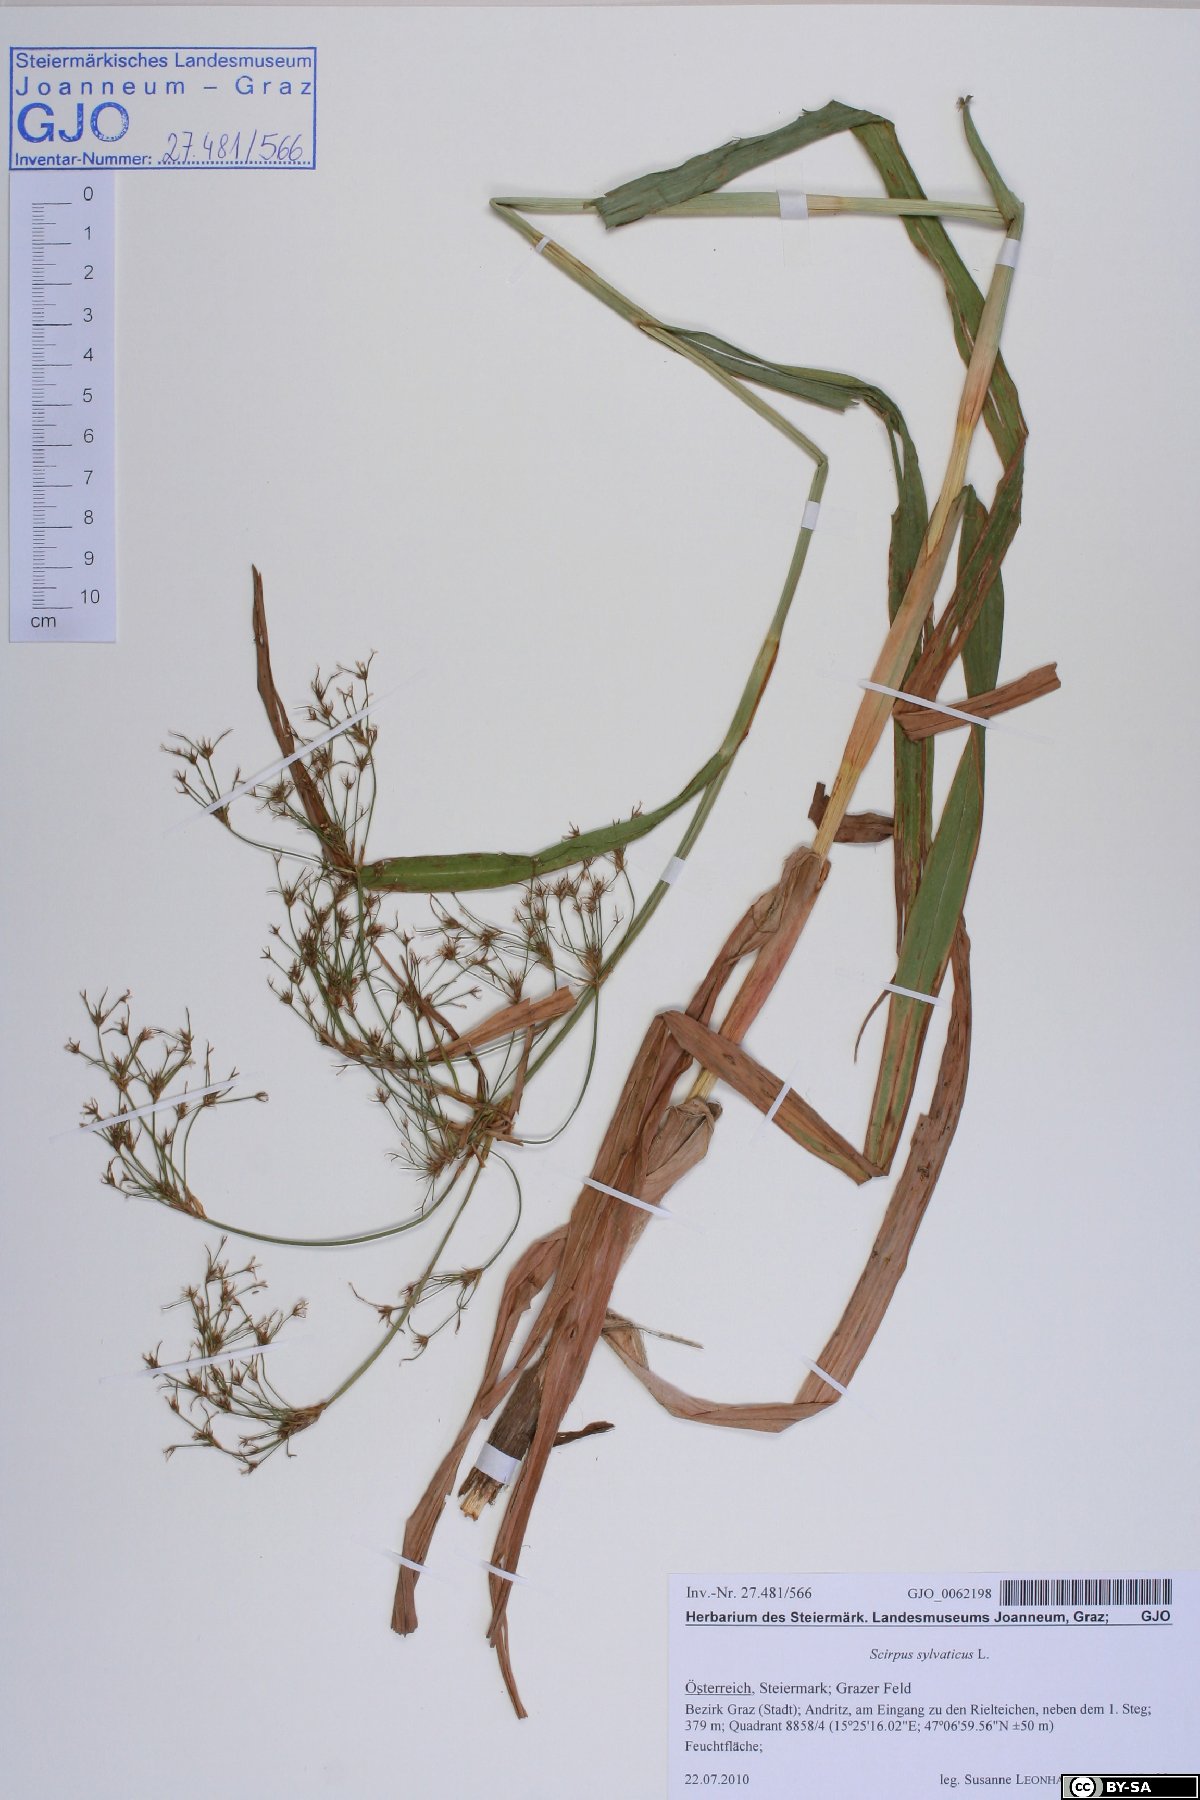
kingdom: Plantae
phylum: Tracheophyta
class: Liliopsida
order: Poales
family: Cyperaceae
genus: Scirpus
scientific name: Scirpus sylvaticus
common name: Wood club-rush
